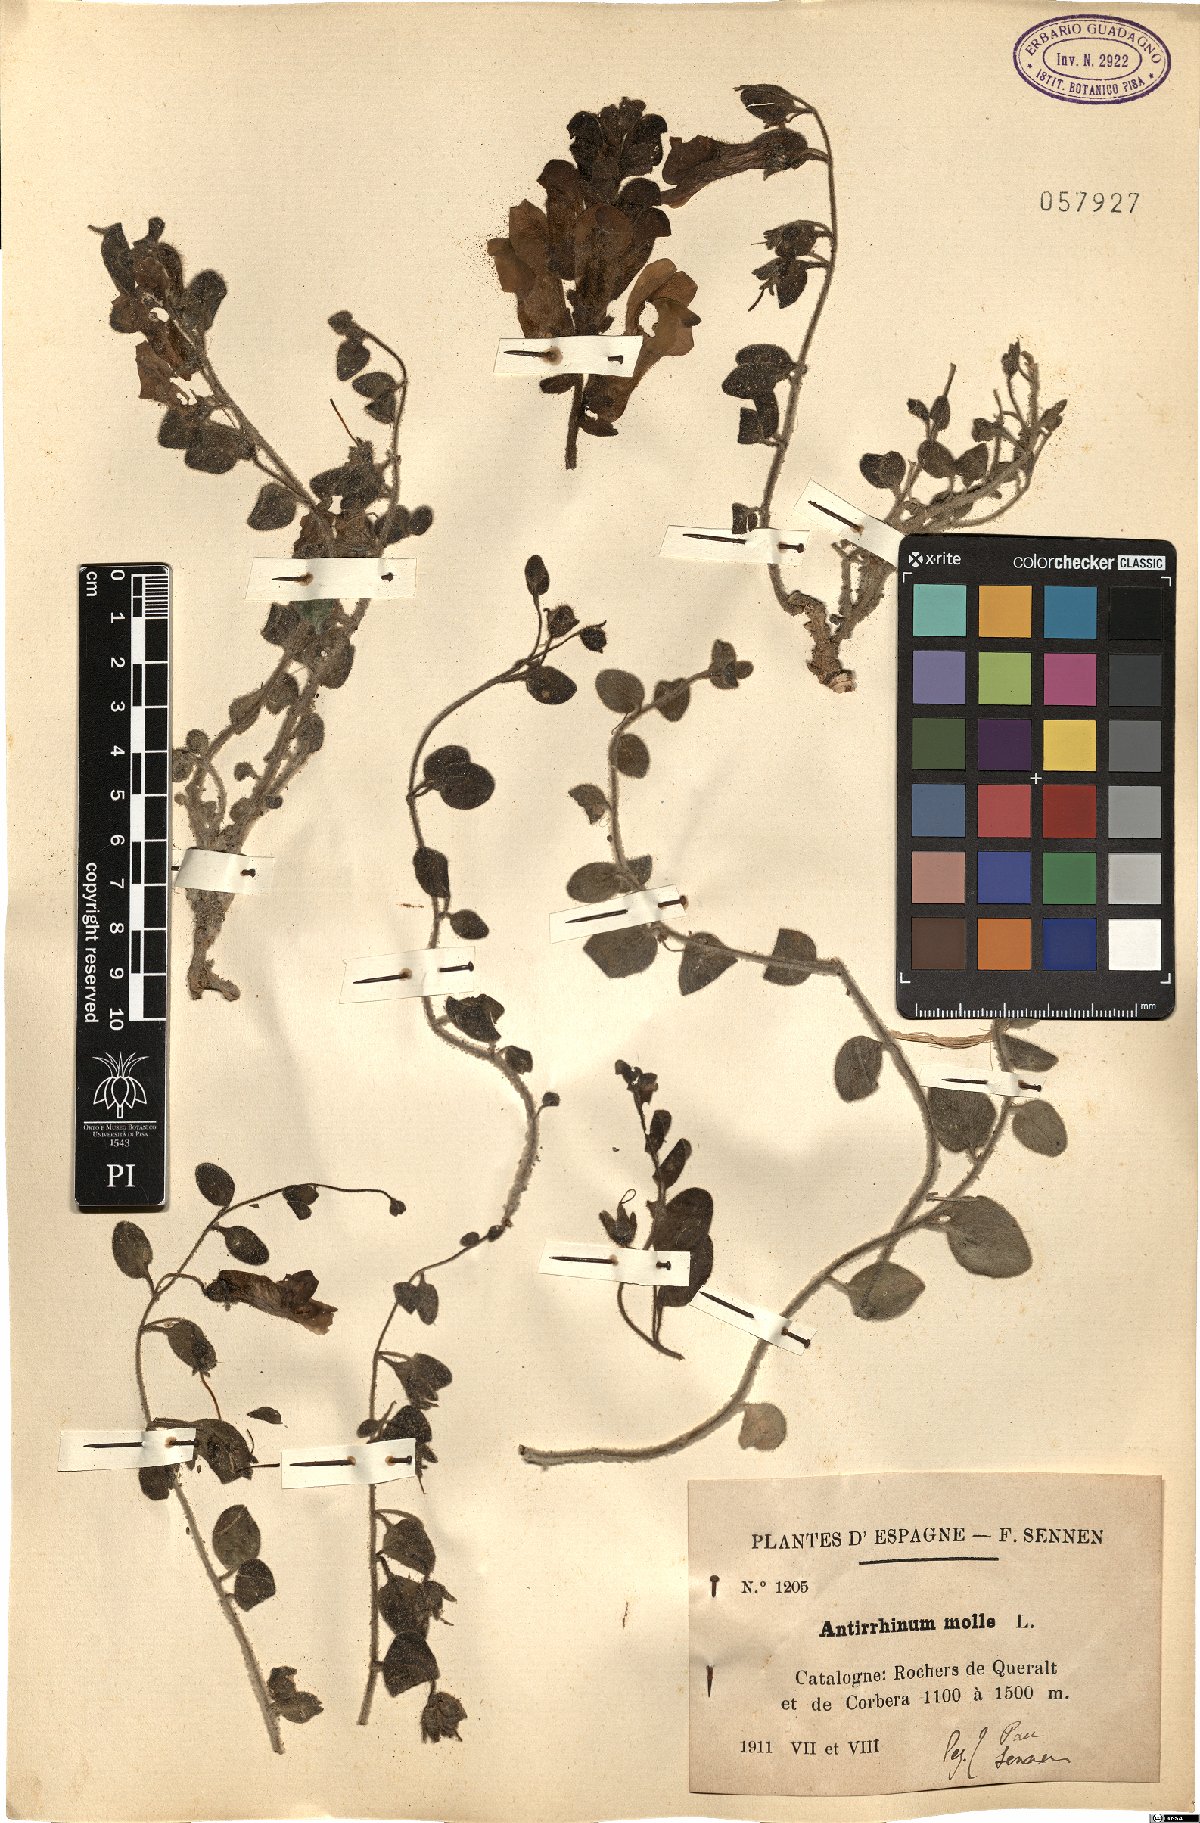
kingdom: Plantae
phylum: Tracheophyta
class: Magnoliopsida
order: Lamiales
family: Plantaginaceae
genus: Antirrhinum
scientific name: Antirrhinum molle
